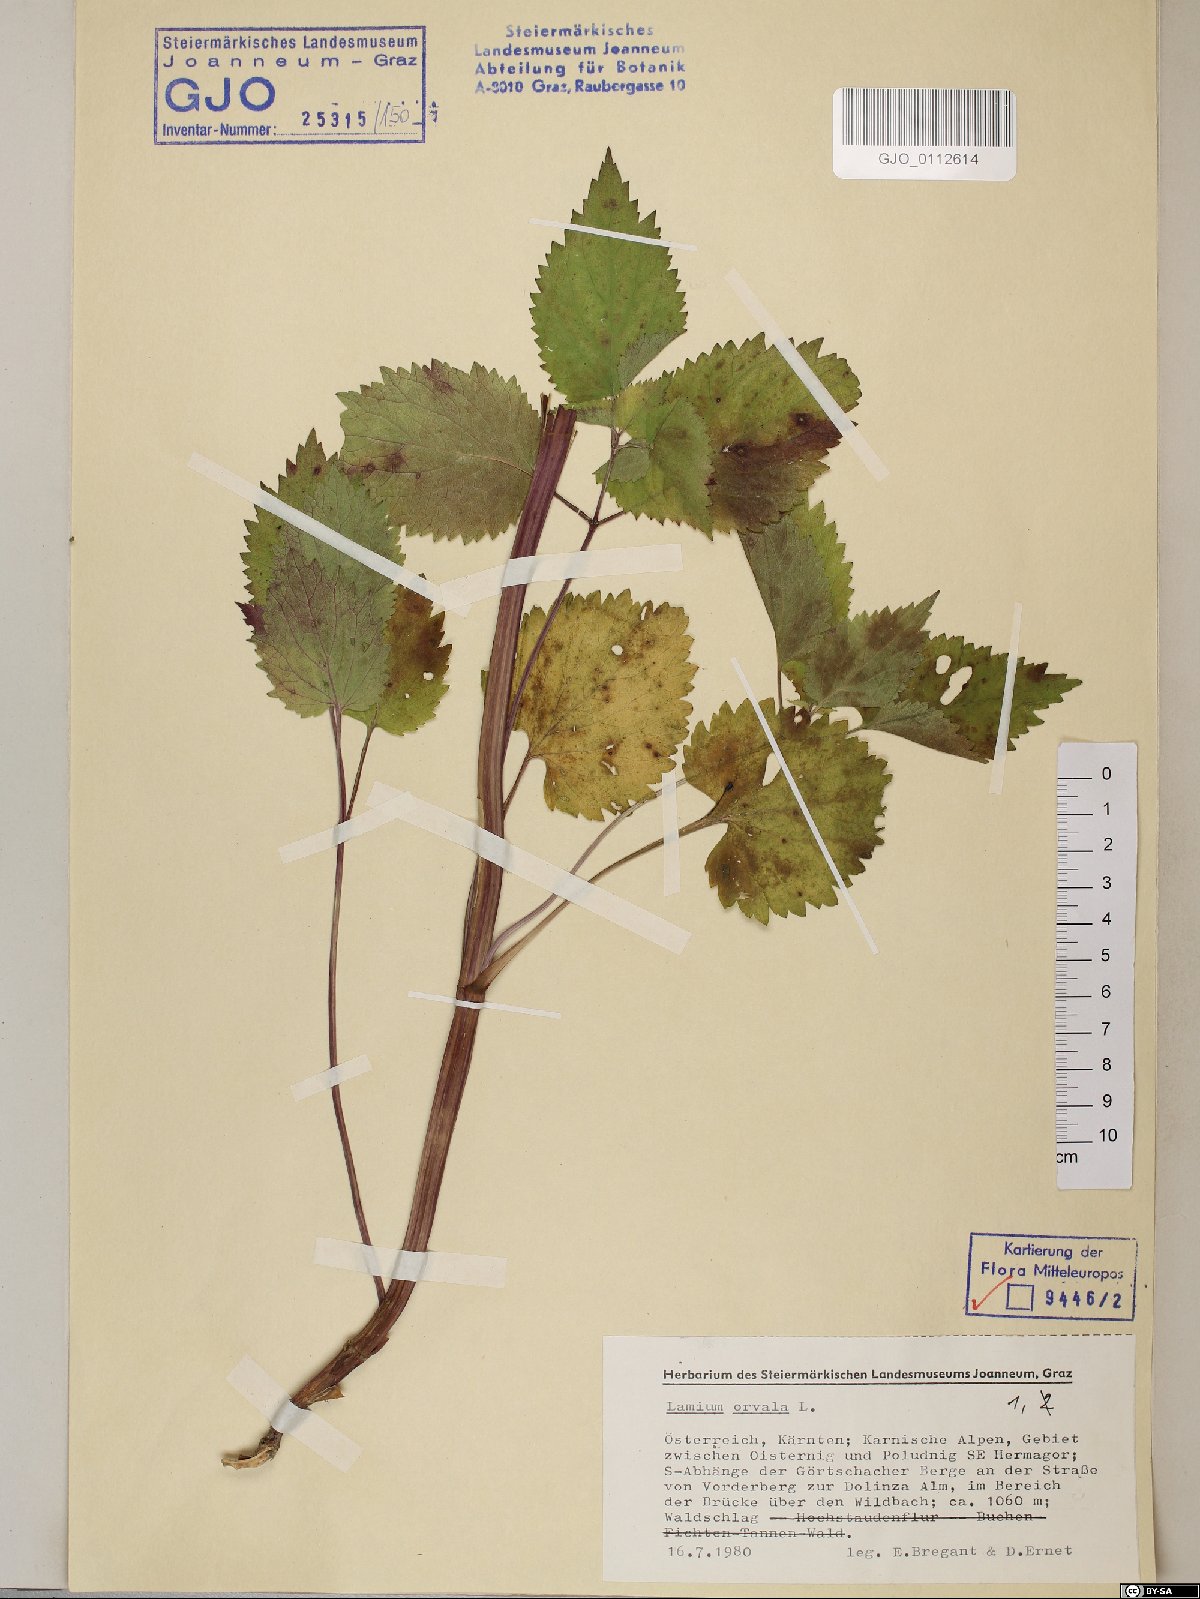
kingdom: Plantae
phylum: Tracheophyta
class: Magnoliopsida
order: Lamiales
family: Lamiaceae
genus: Lamium
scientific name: Lamium orvala
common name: Balm-leaved archangel
